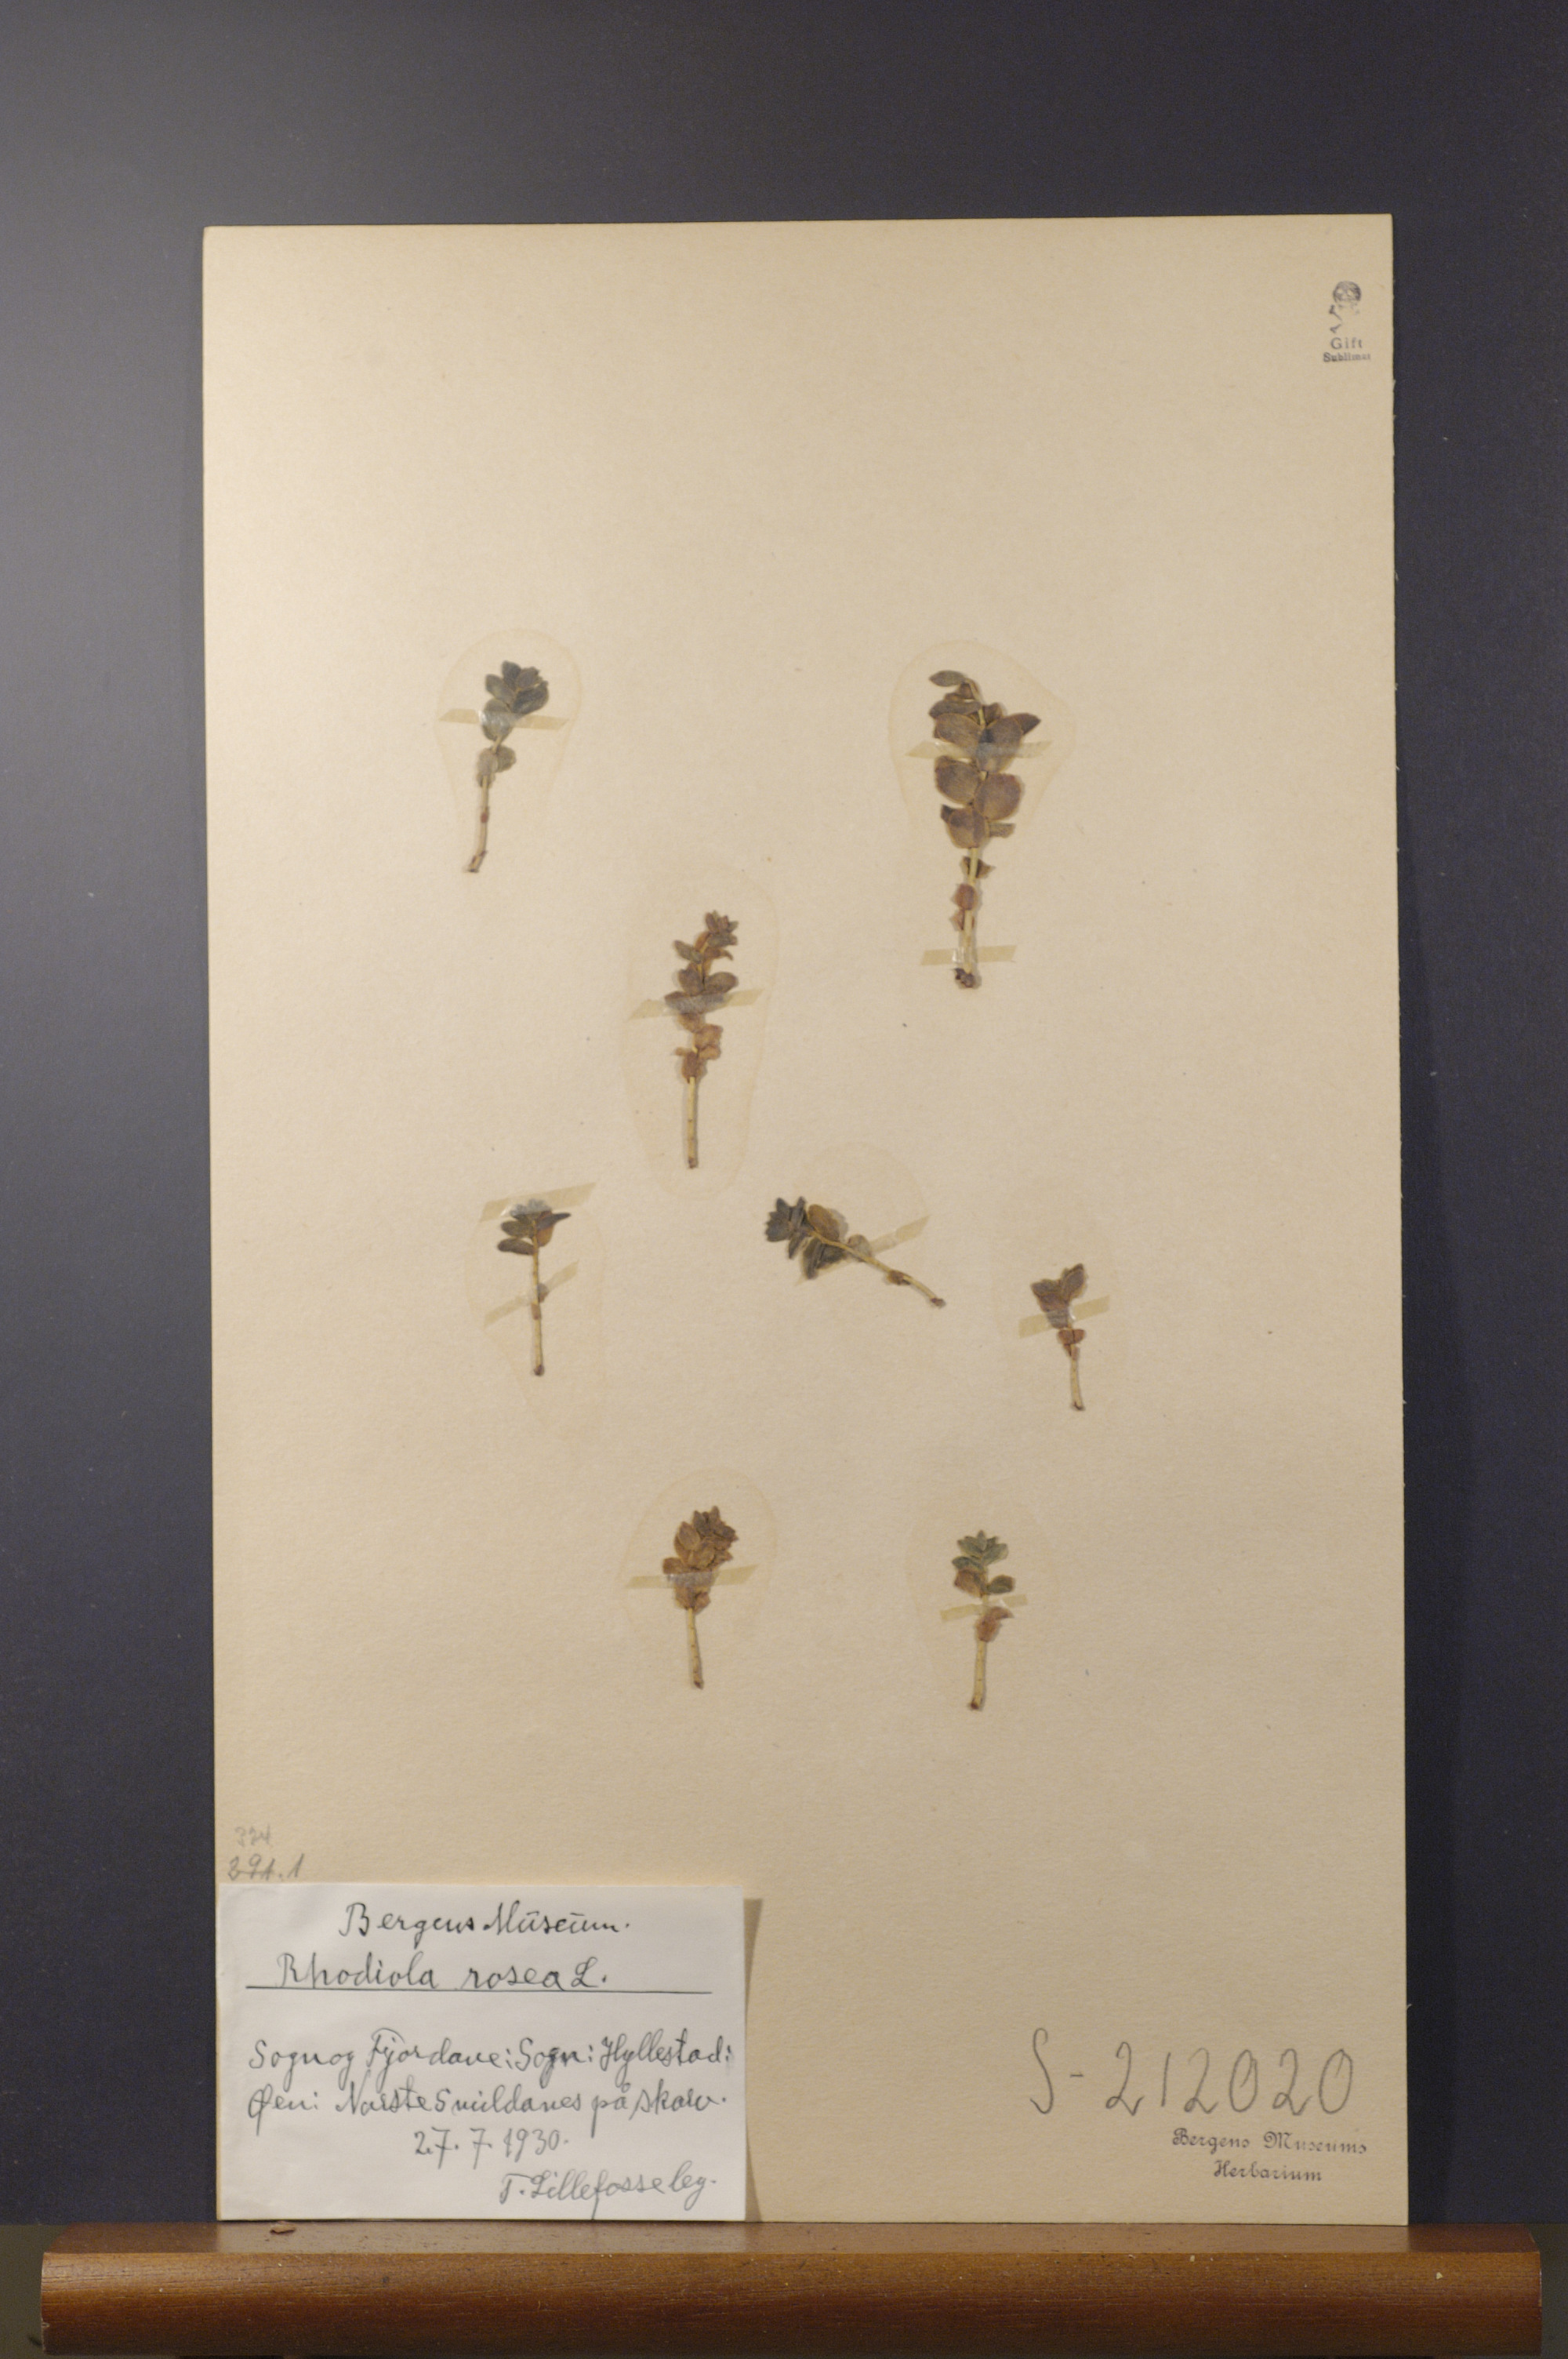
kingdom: Plantae
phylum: Tracheophyta
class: Magnoliopsida
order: Saxifragales
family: Crassulaceae
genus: Rhodiola
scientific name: Rhodiola rosea
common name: Roseroot
